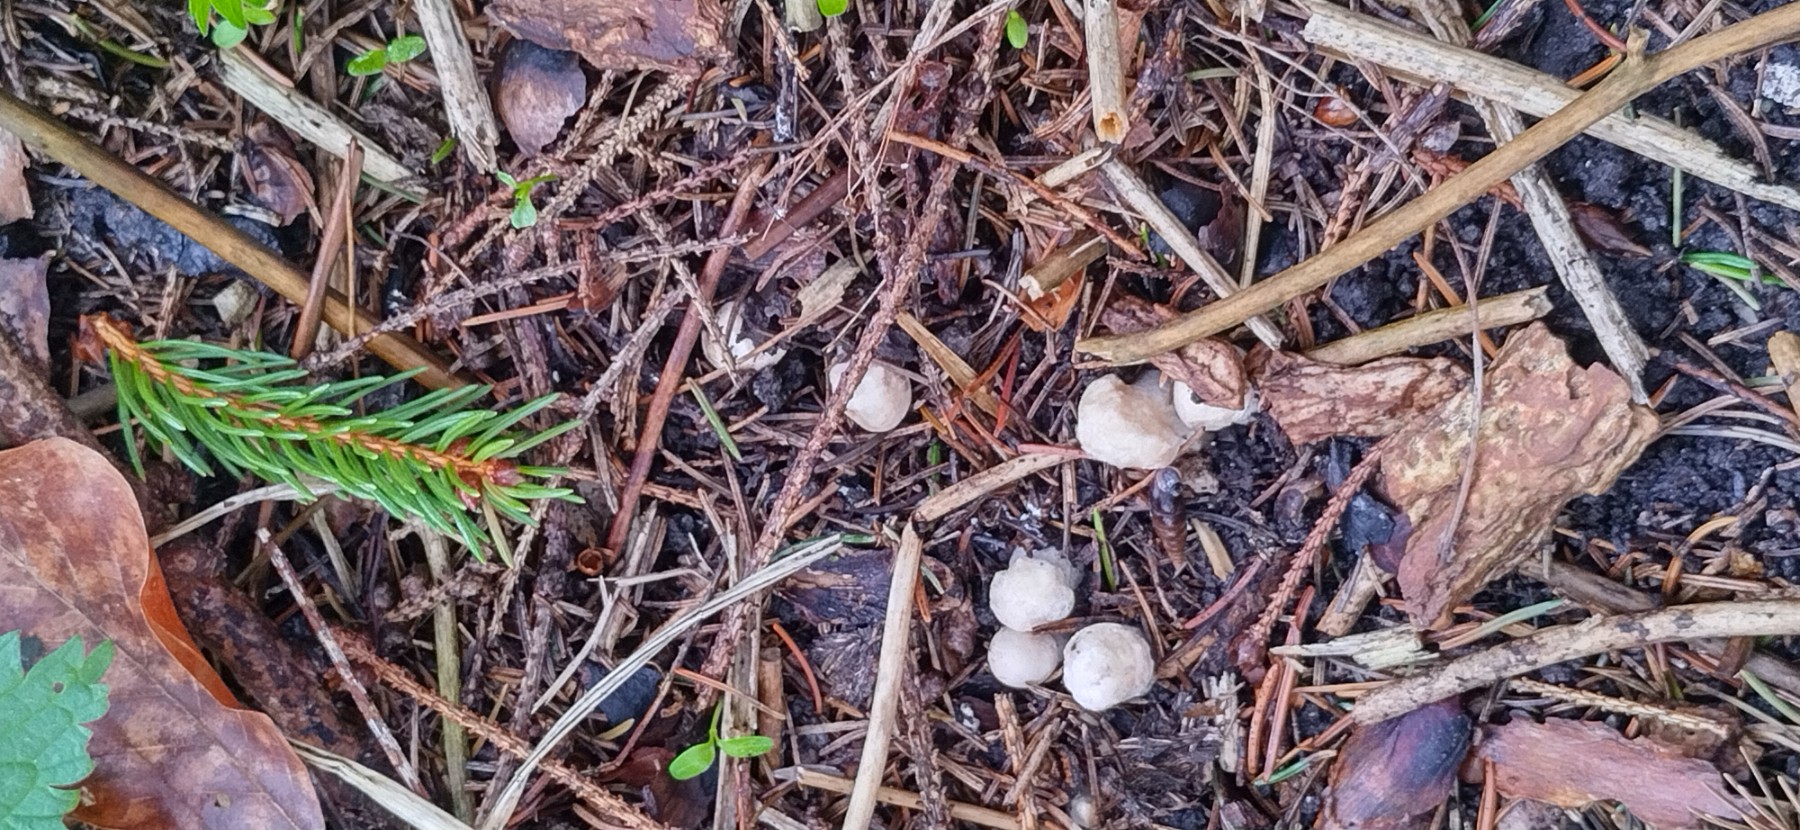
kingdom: Fungi
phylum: Basidiomycota
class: Agaricomycetes
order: Agaricales
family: Lyophyllaceae
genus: Calocybe
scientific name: Calocybe gambosa
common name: vårmusseron
